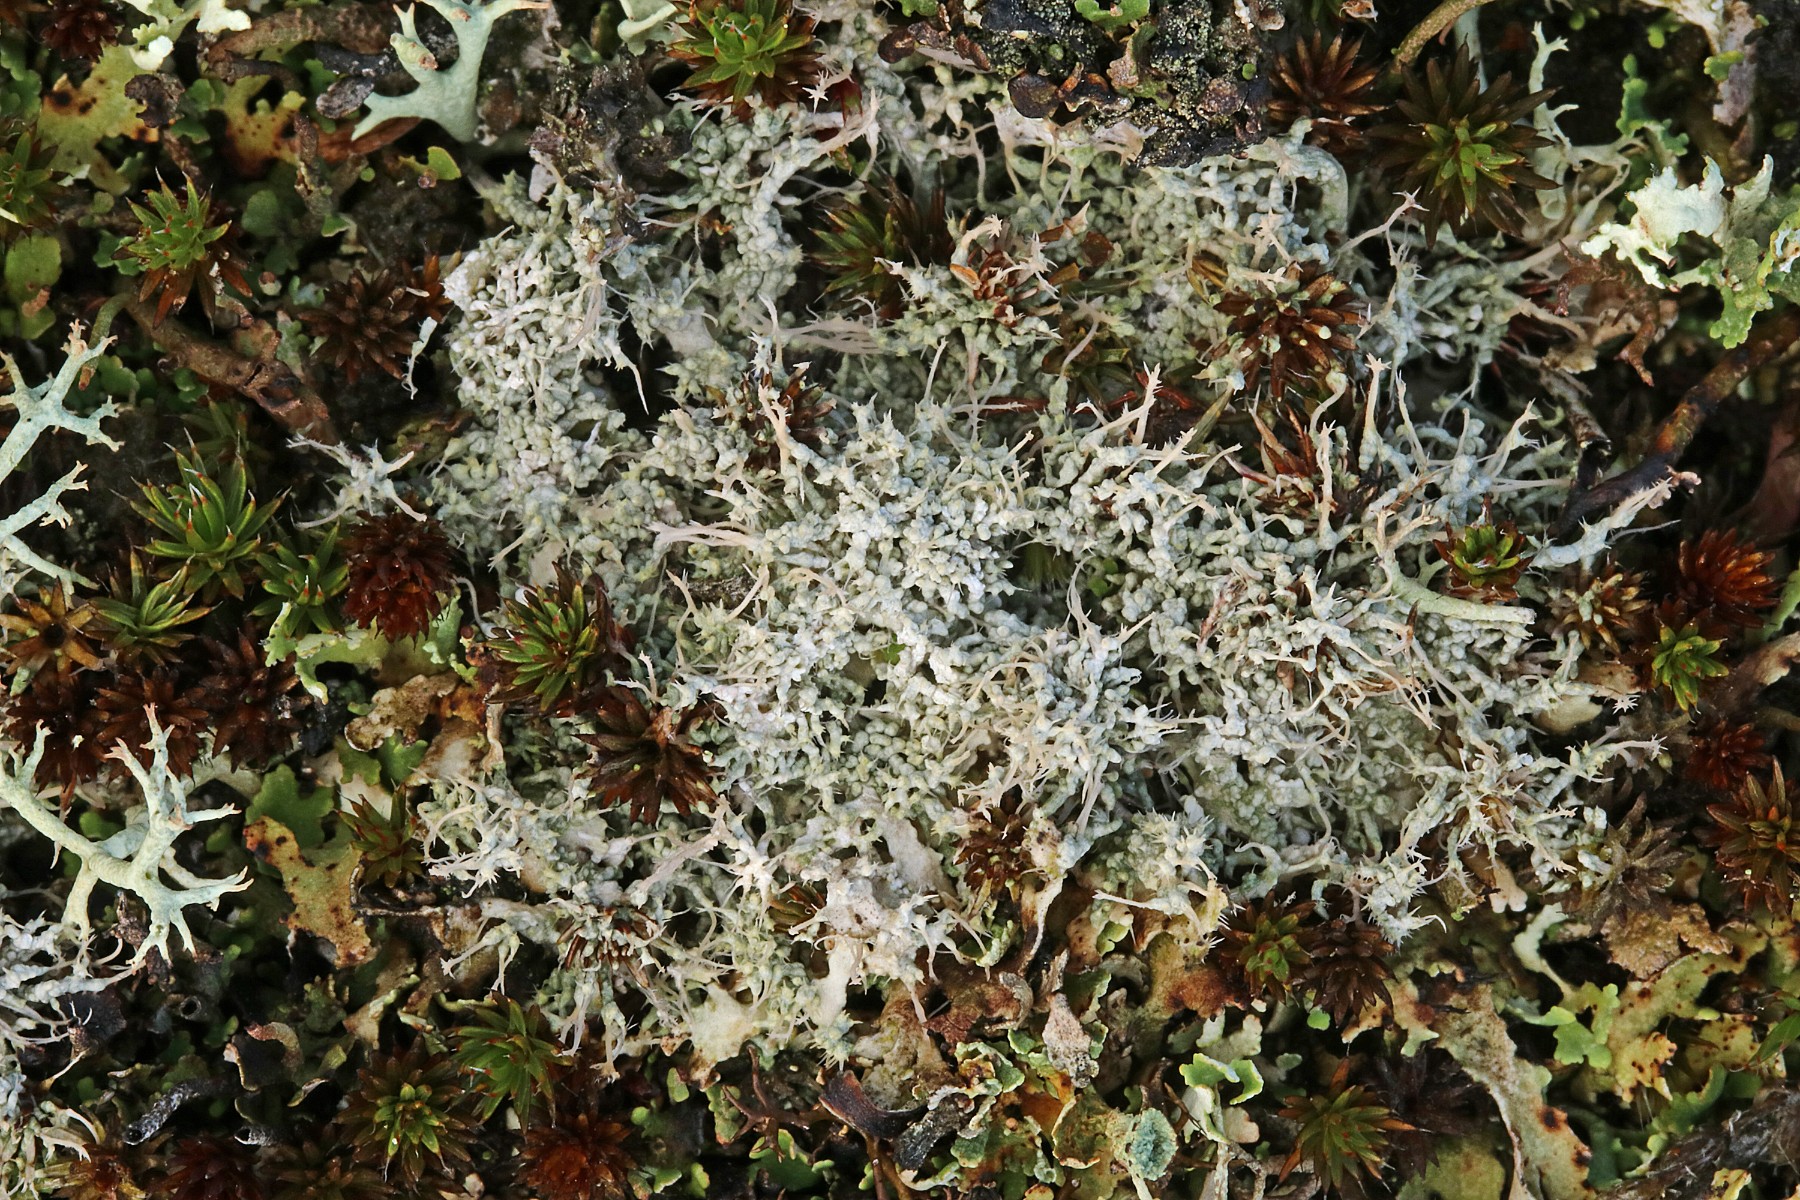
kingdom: Fungi
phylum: Ascomycota
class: Lecanoromycetes
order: Pertusariales
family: Ochrolechiaceae
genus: Ochrolechia
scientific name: Ochrolechia frigida
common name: fjeld-blegskivelav
